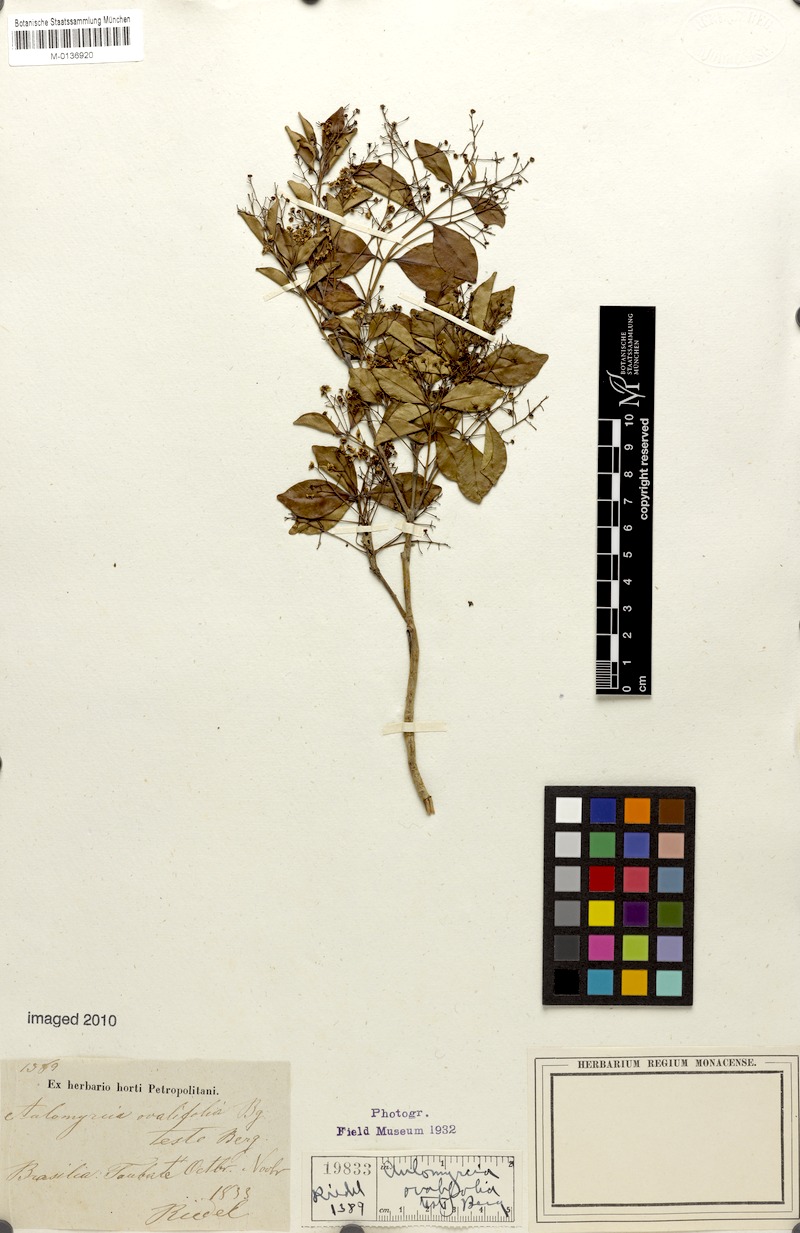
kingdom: Plantae
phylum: Tracheophyta
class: Magnoliopsida
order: Myrtales
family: Myrtaceae
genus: Myrcia
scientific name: Myrcia multiflora
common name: Pedra hume
